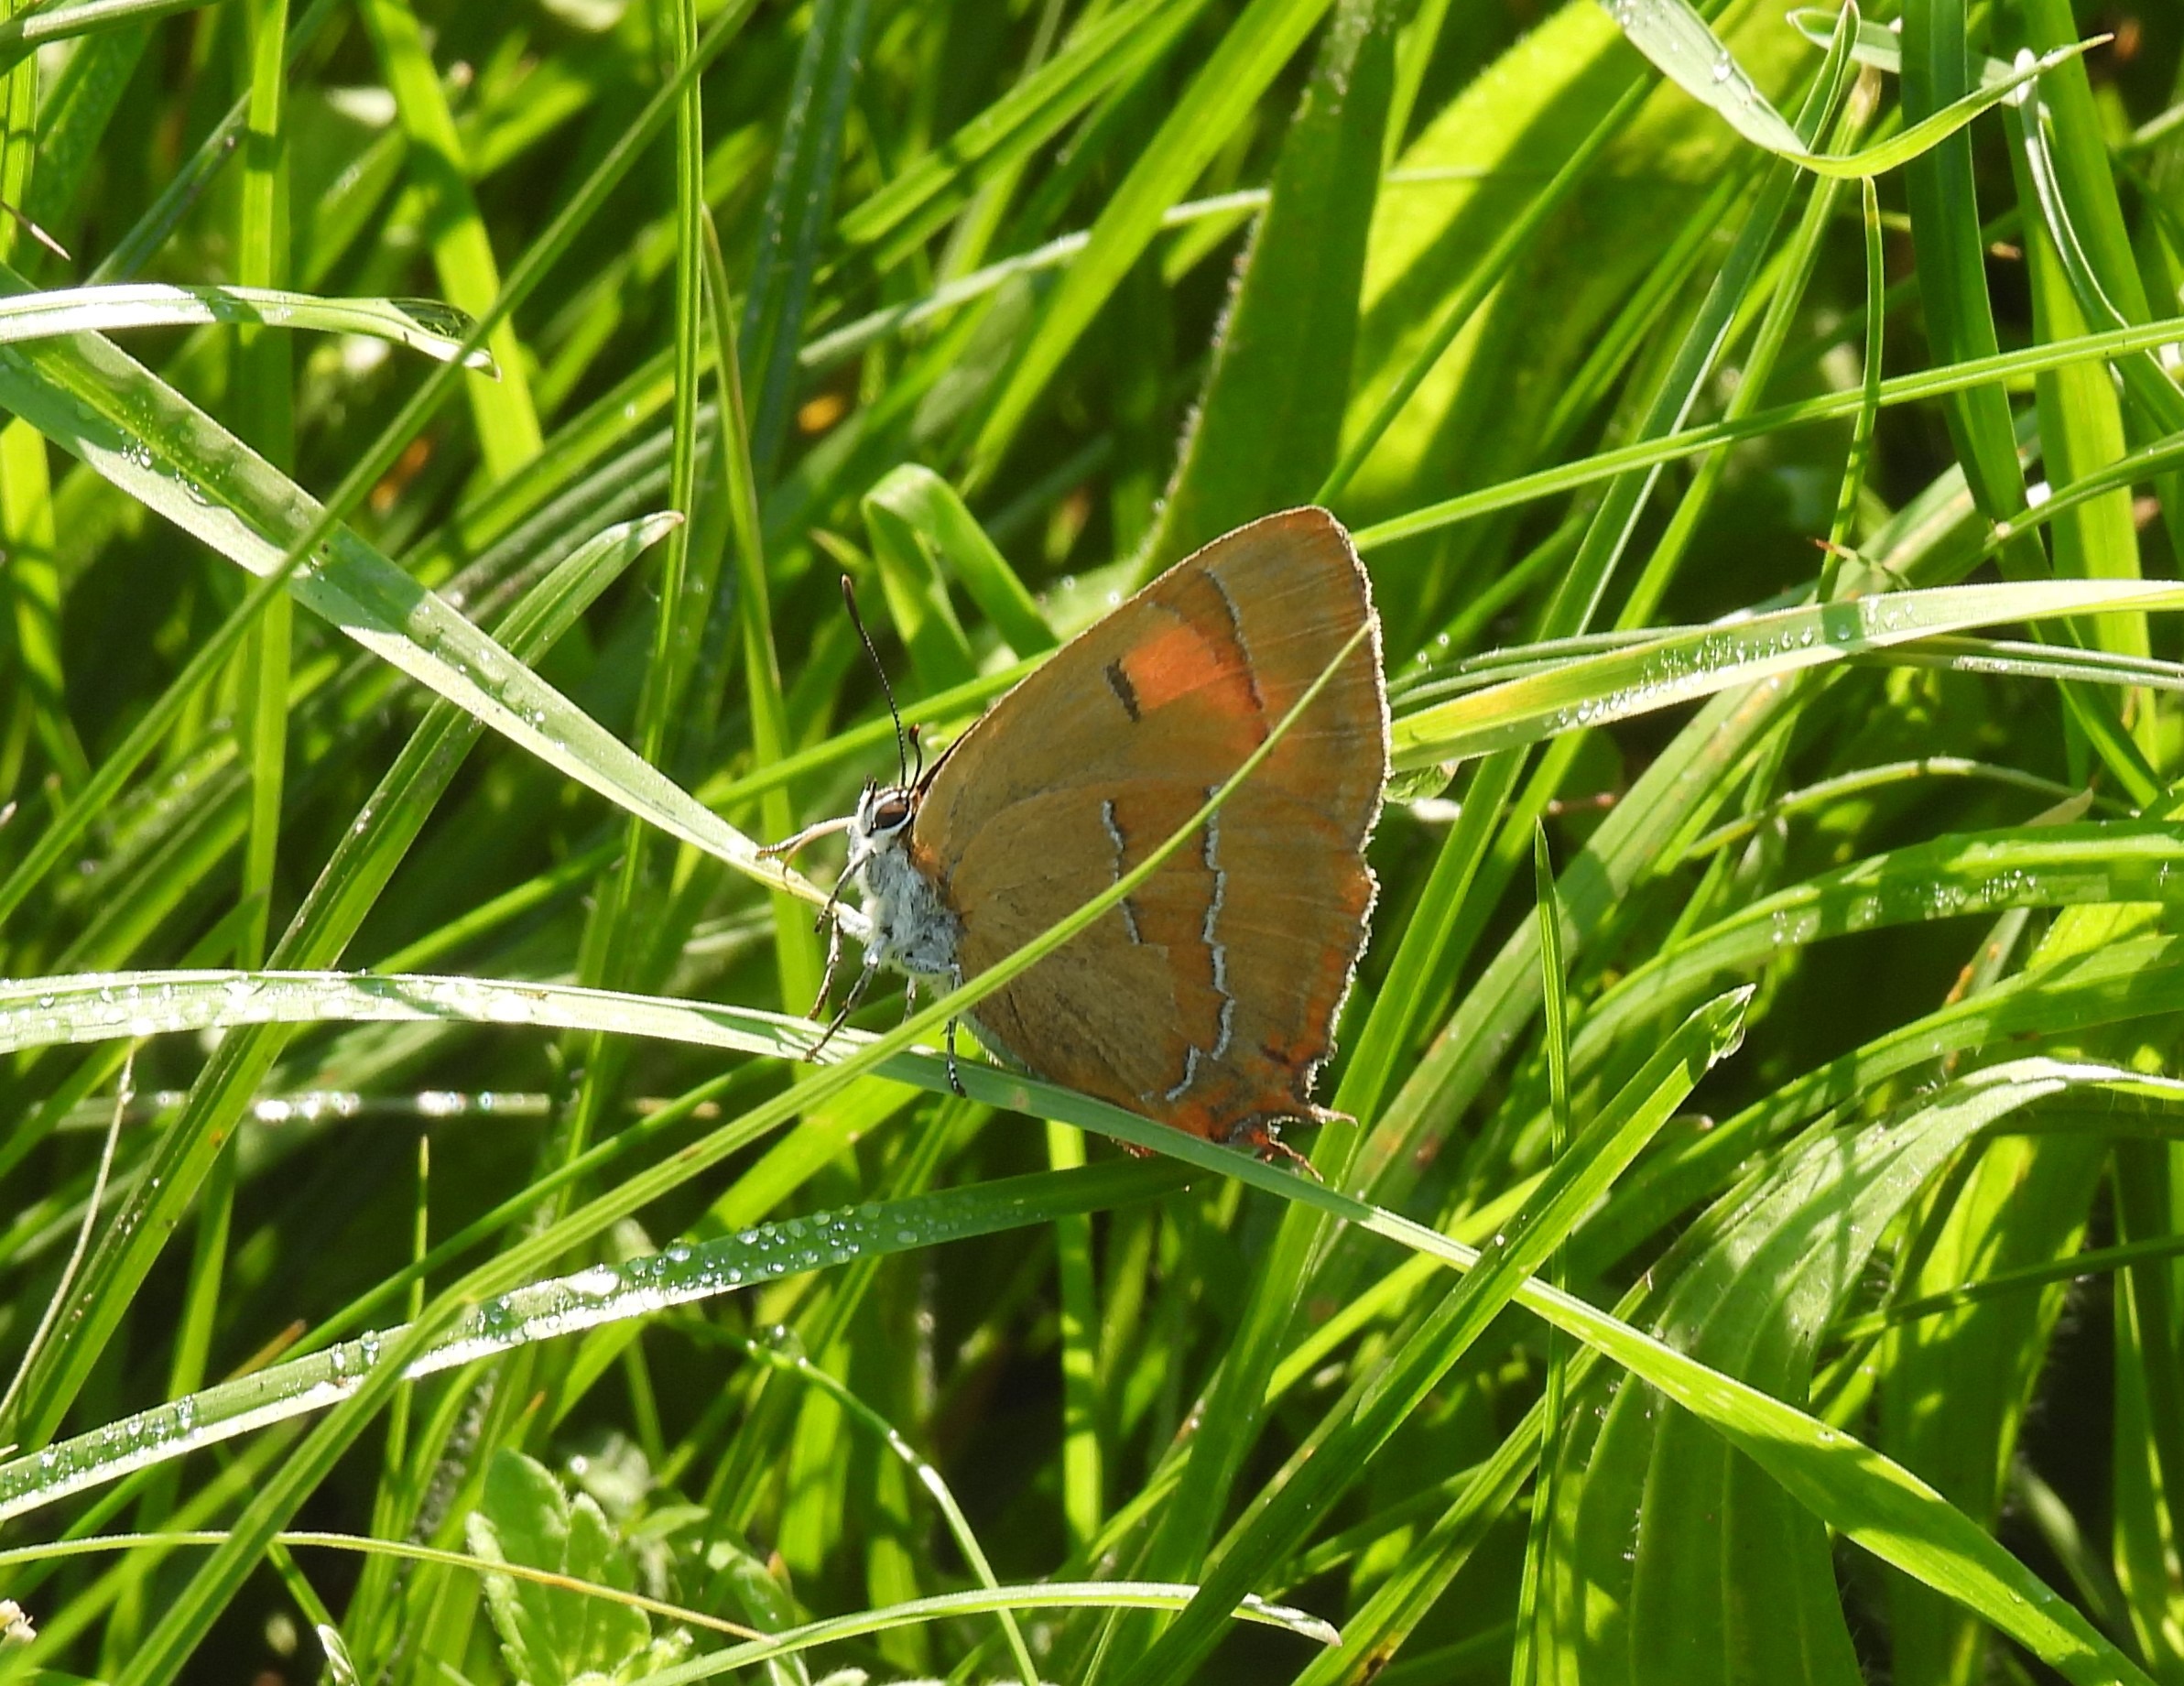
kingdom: Animalia
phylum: Arthropoda
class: Insecta
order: Lepidoptera
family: Lycaenidae
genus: Thecla
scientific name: Thecla betulae
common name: Guldhale
